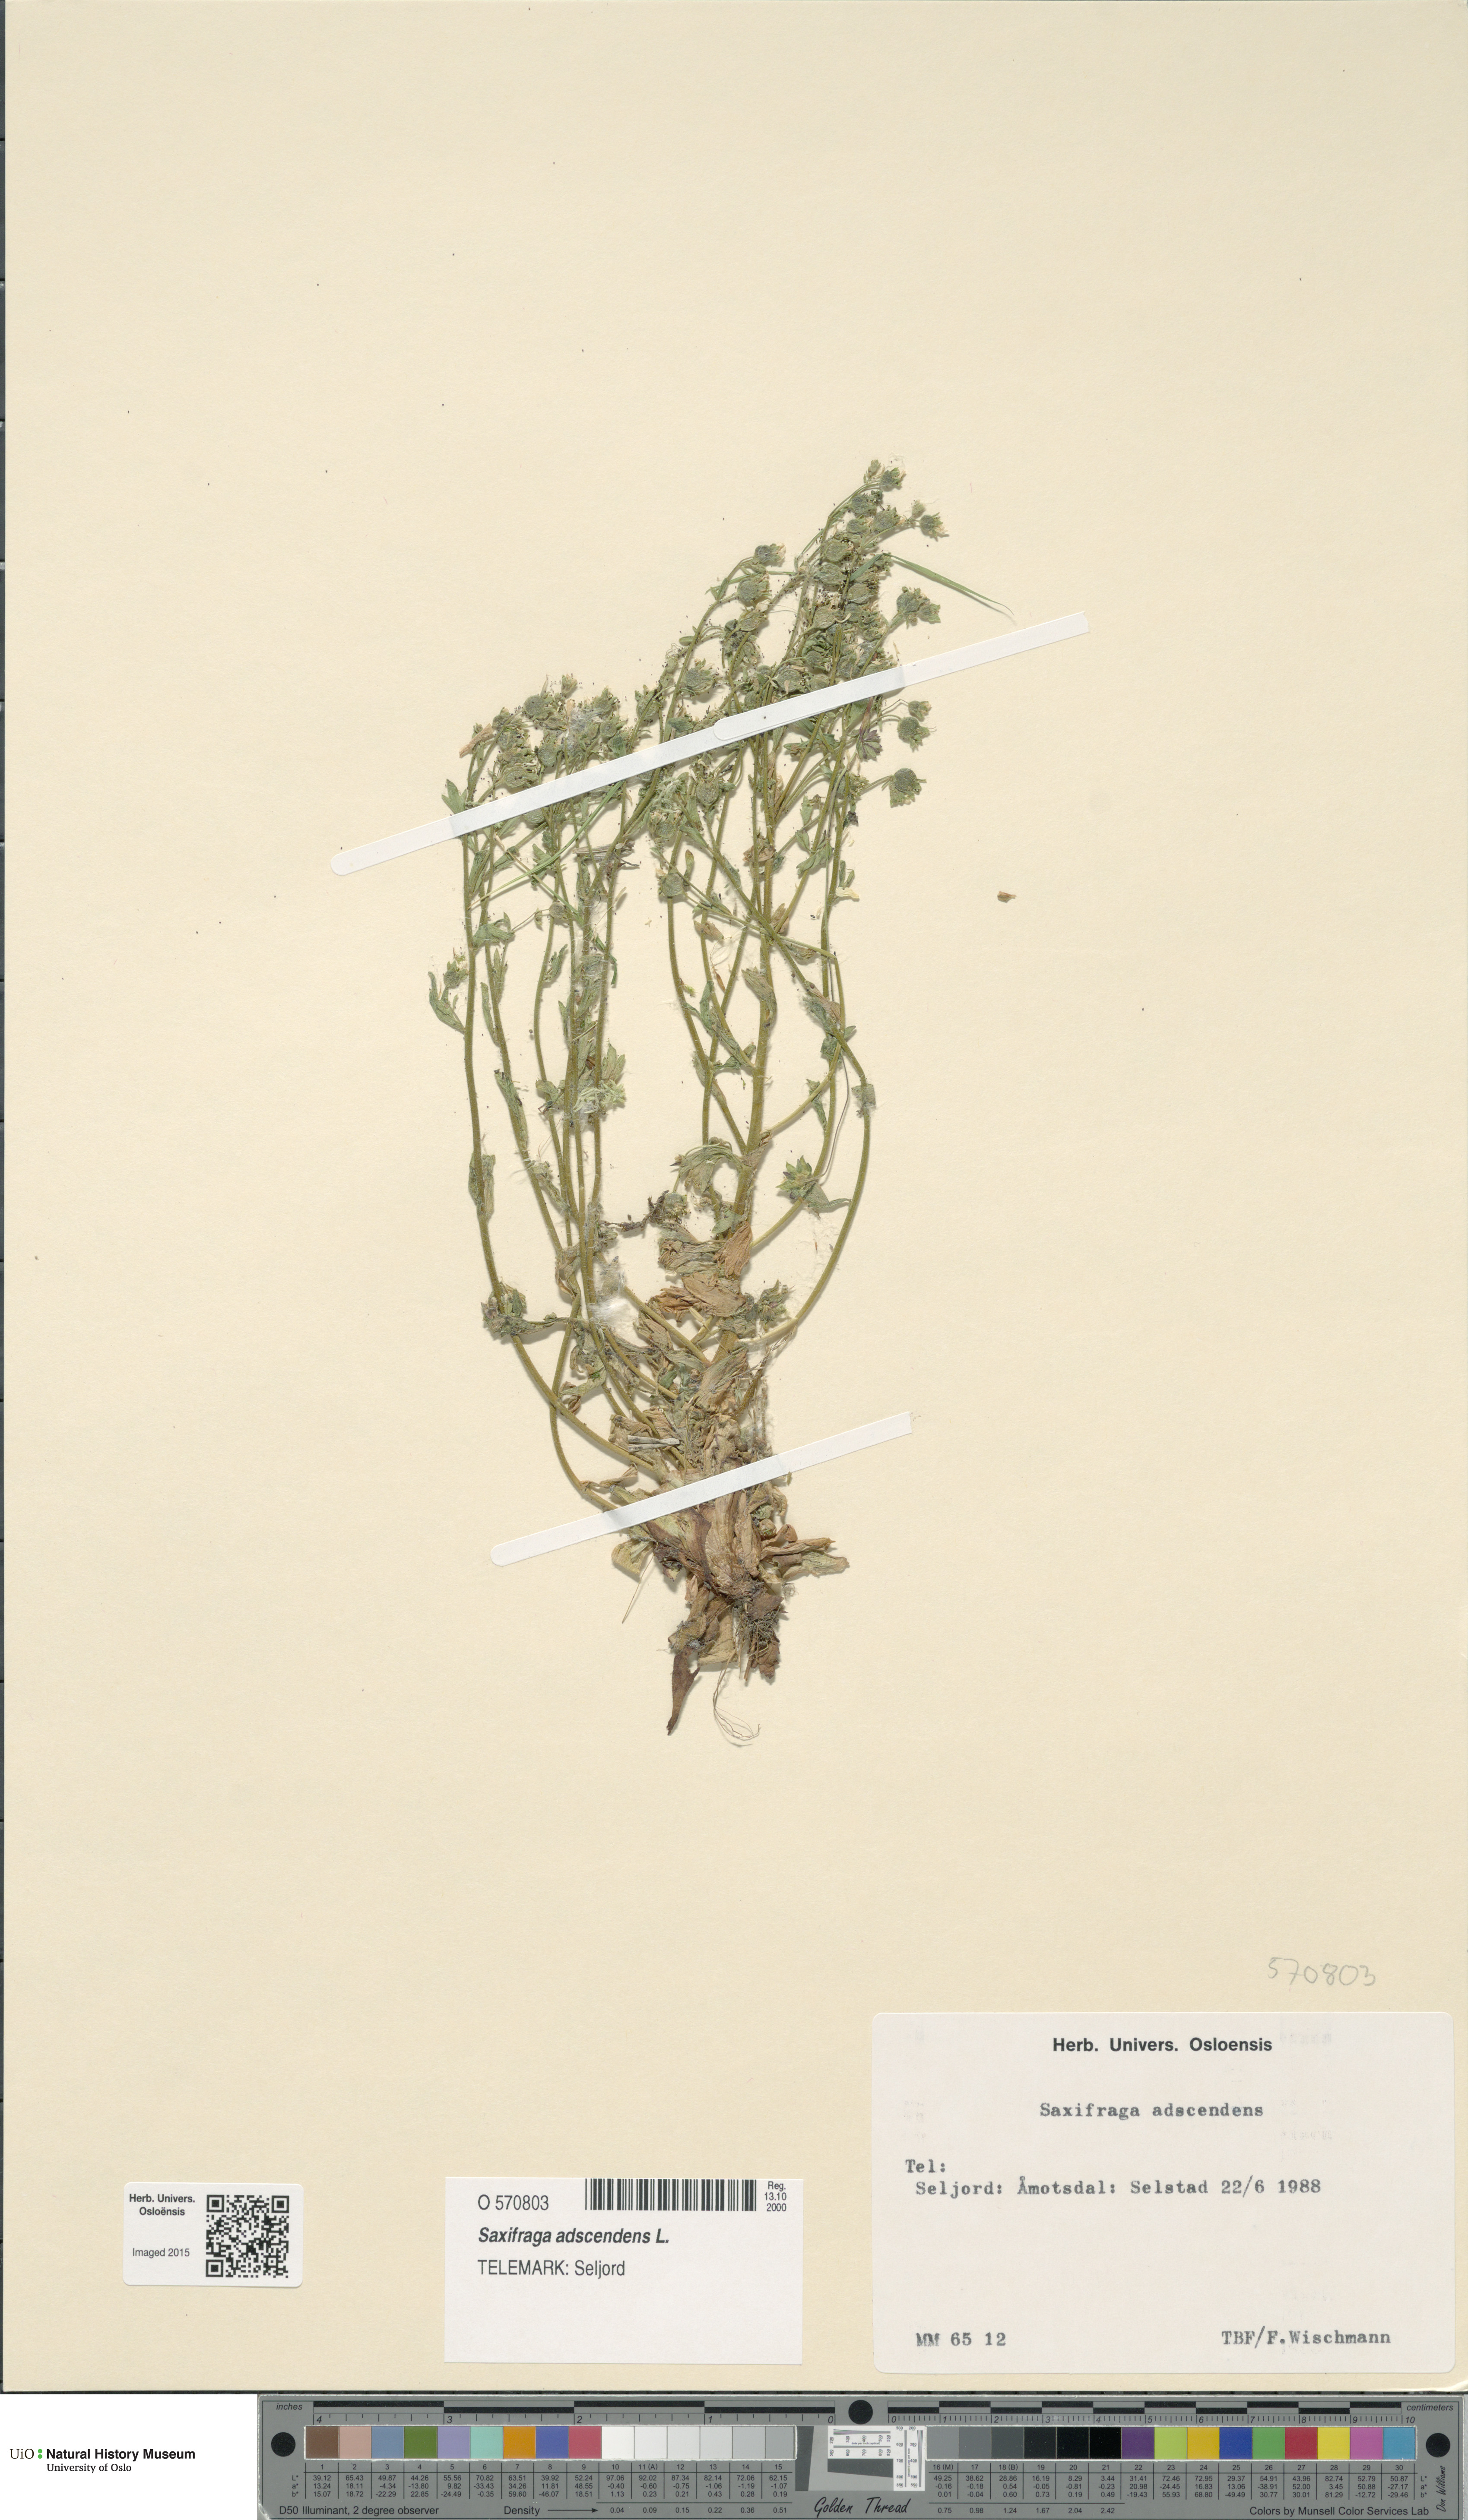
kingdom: Plantae
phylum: Tracheophyta
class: Magnoliopsida
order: Saxifragales
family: Saxifragaceae
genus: Saxifraga
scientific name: Saxifraga adscendens
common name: Ascending saxifrage
